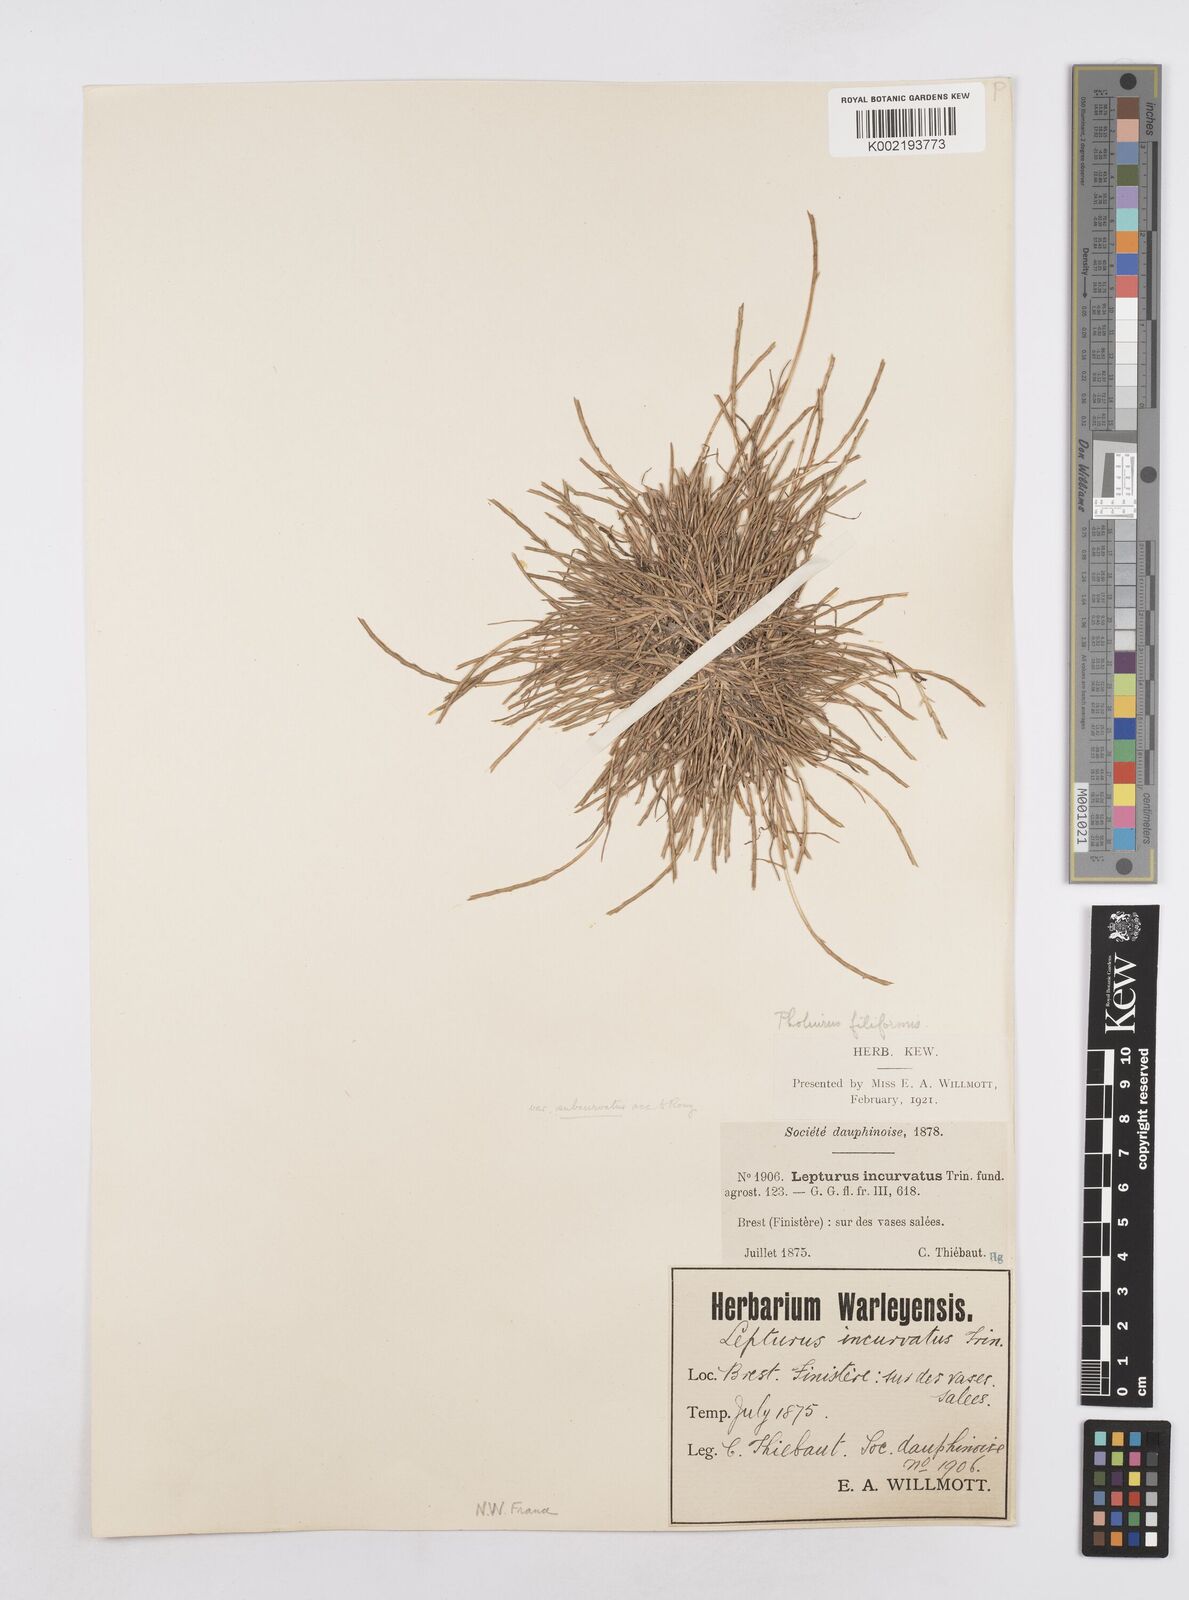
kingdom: Plantae
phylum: Tracheophyta
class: Liliopsida
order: Poales
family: Poaceae
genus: Parapholis
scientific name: Parapholis strigosa
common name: Hard-grass
